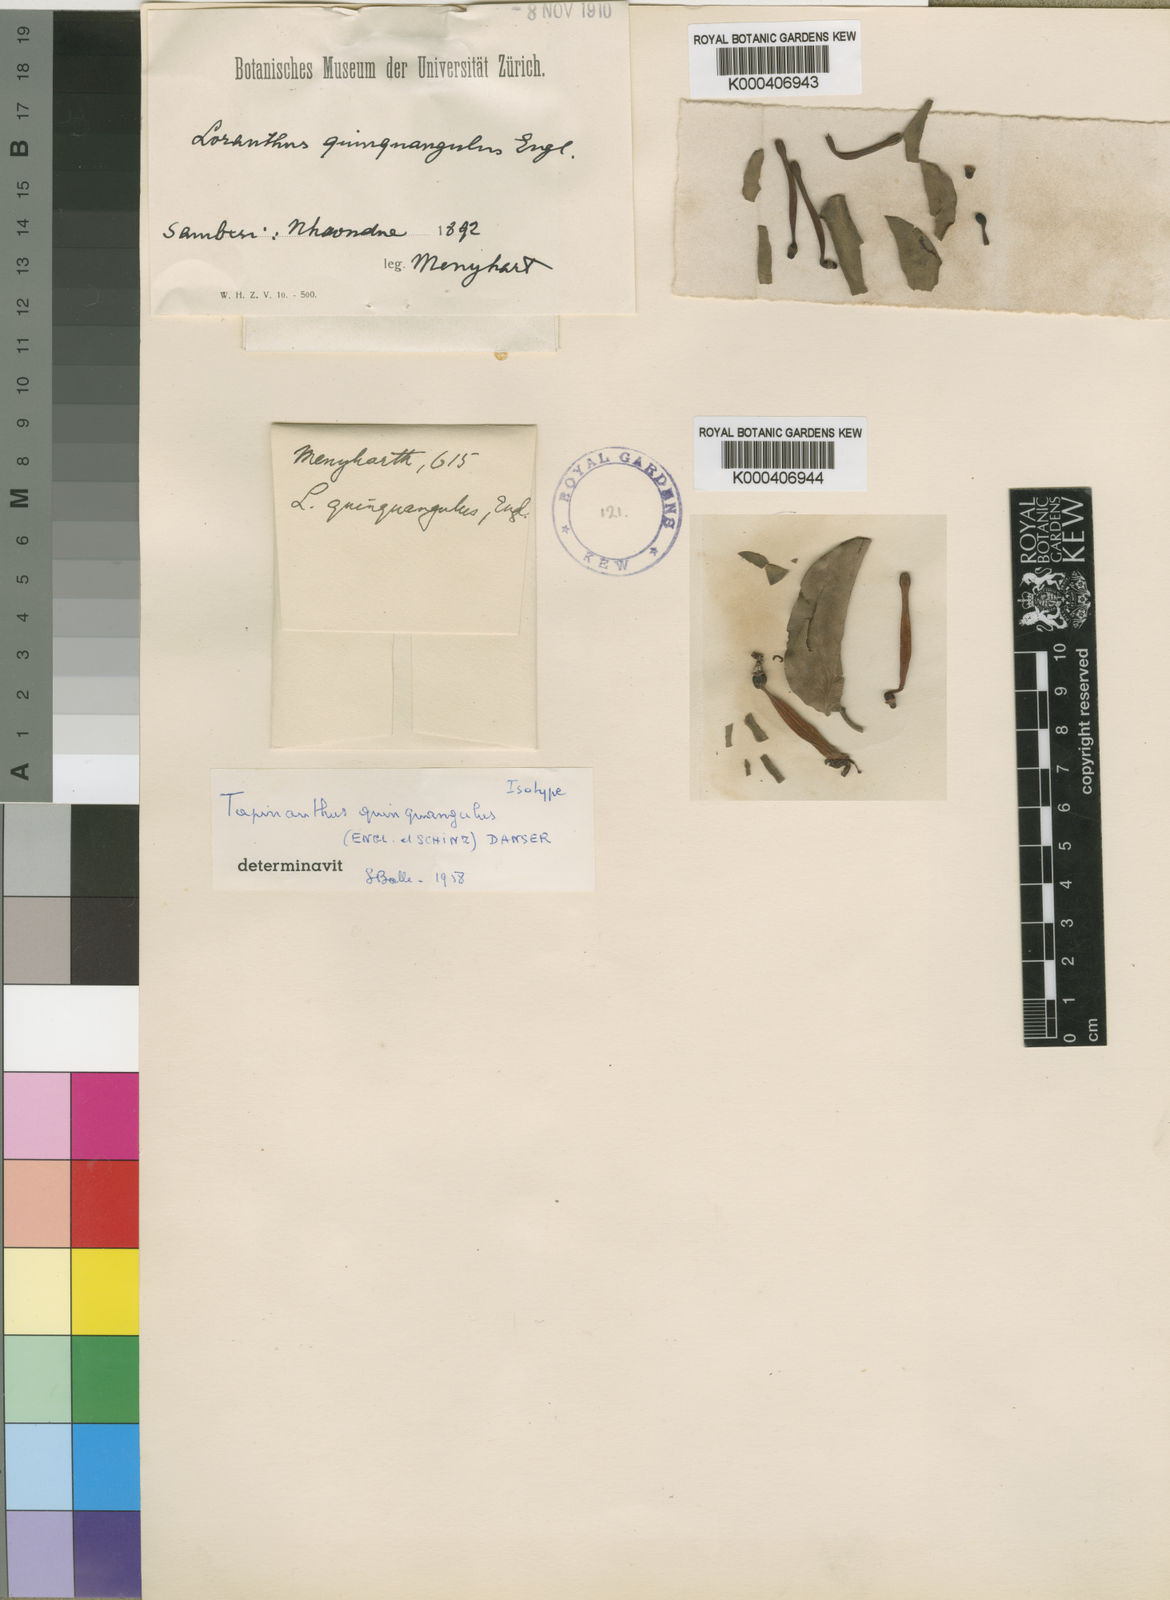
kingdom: Plantae
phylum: Tracheophyta
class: Magnoliopsida
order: Santalales
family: Loranthaceae
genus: Tapinanthus
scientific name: Tapinanthus oleifolius
